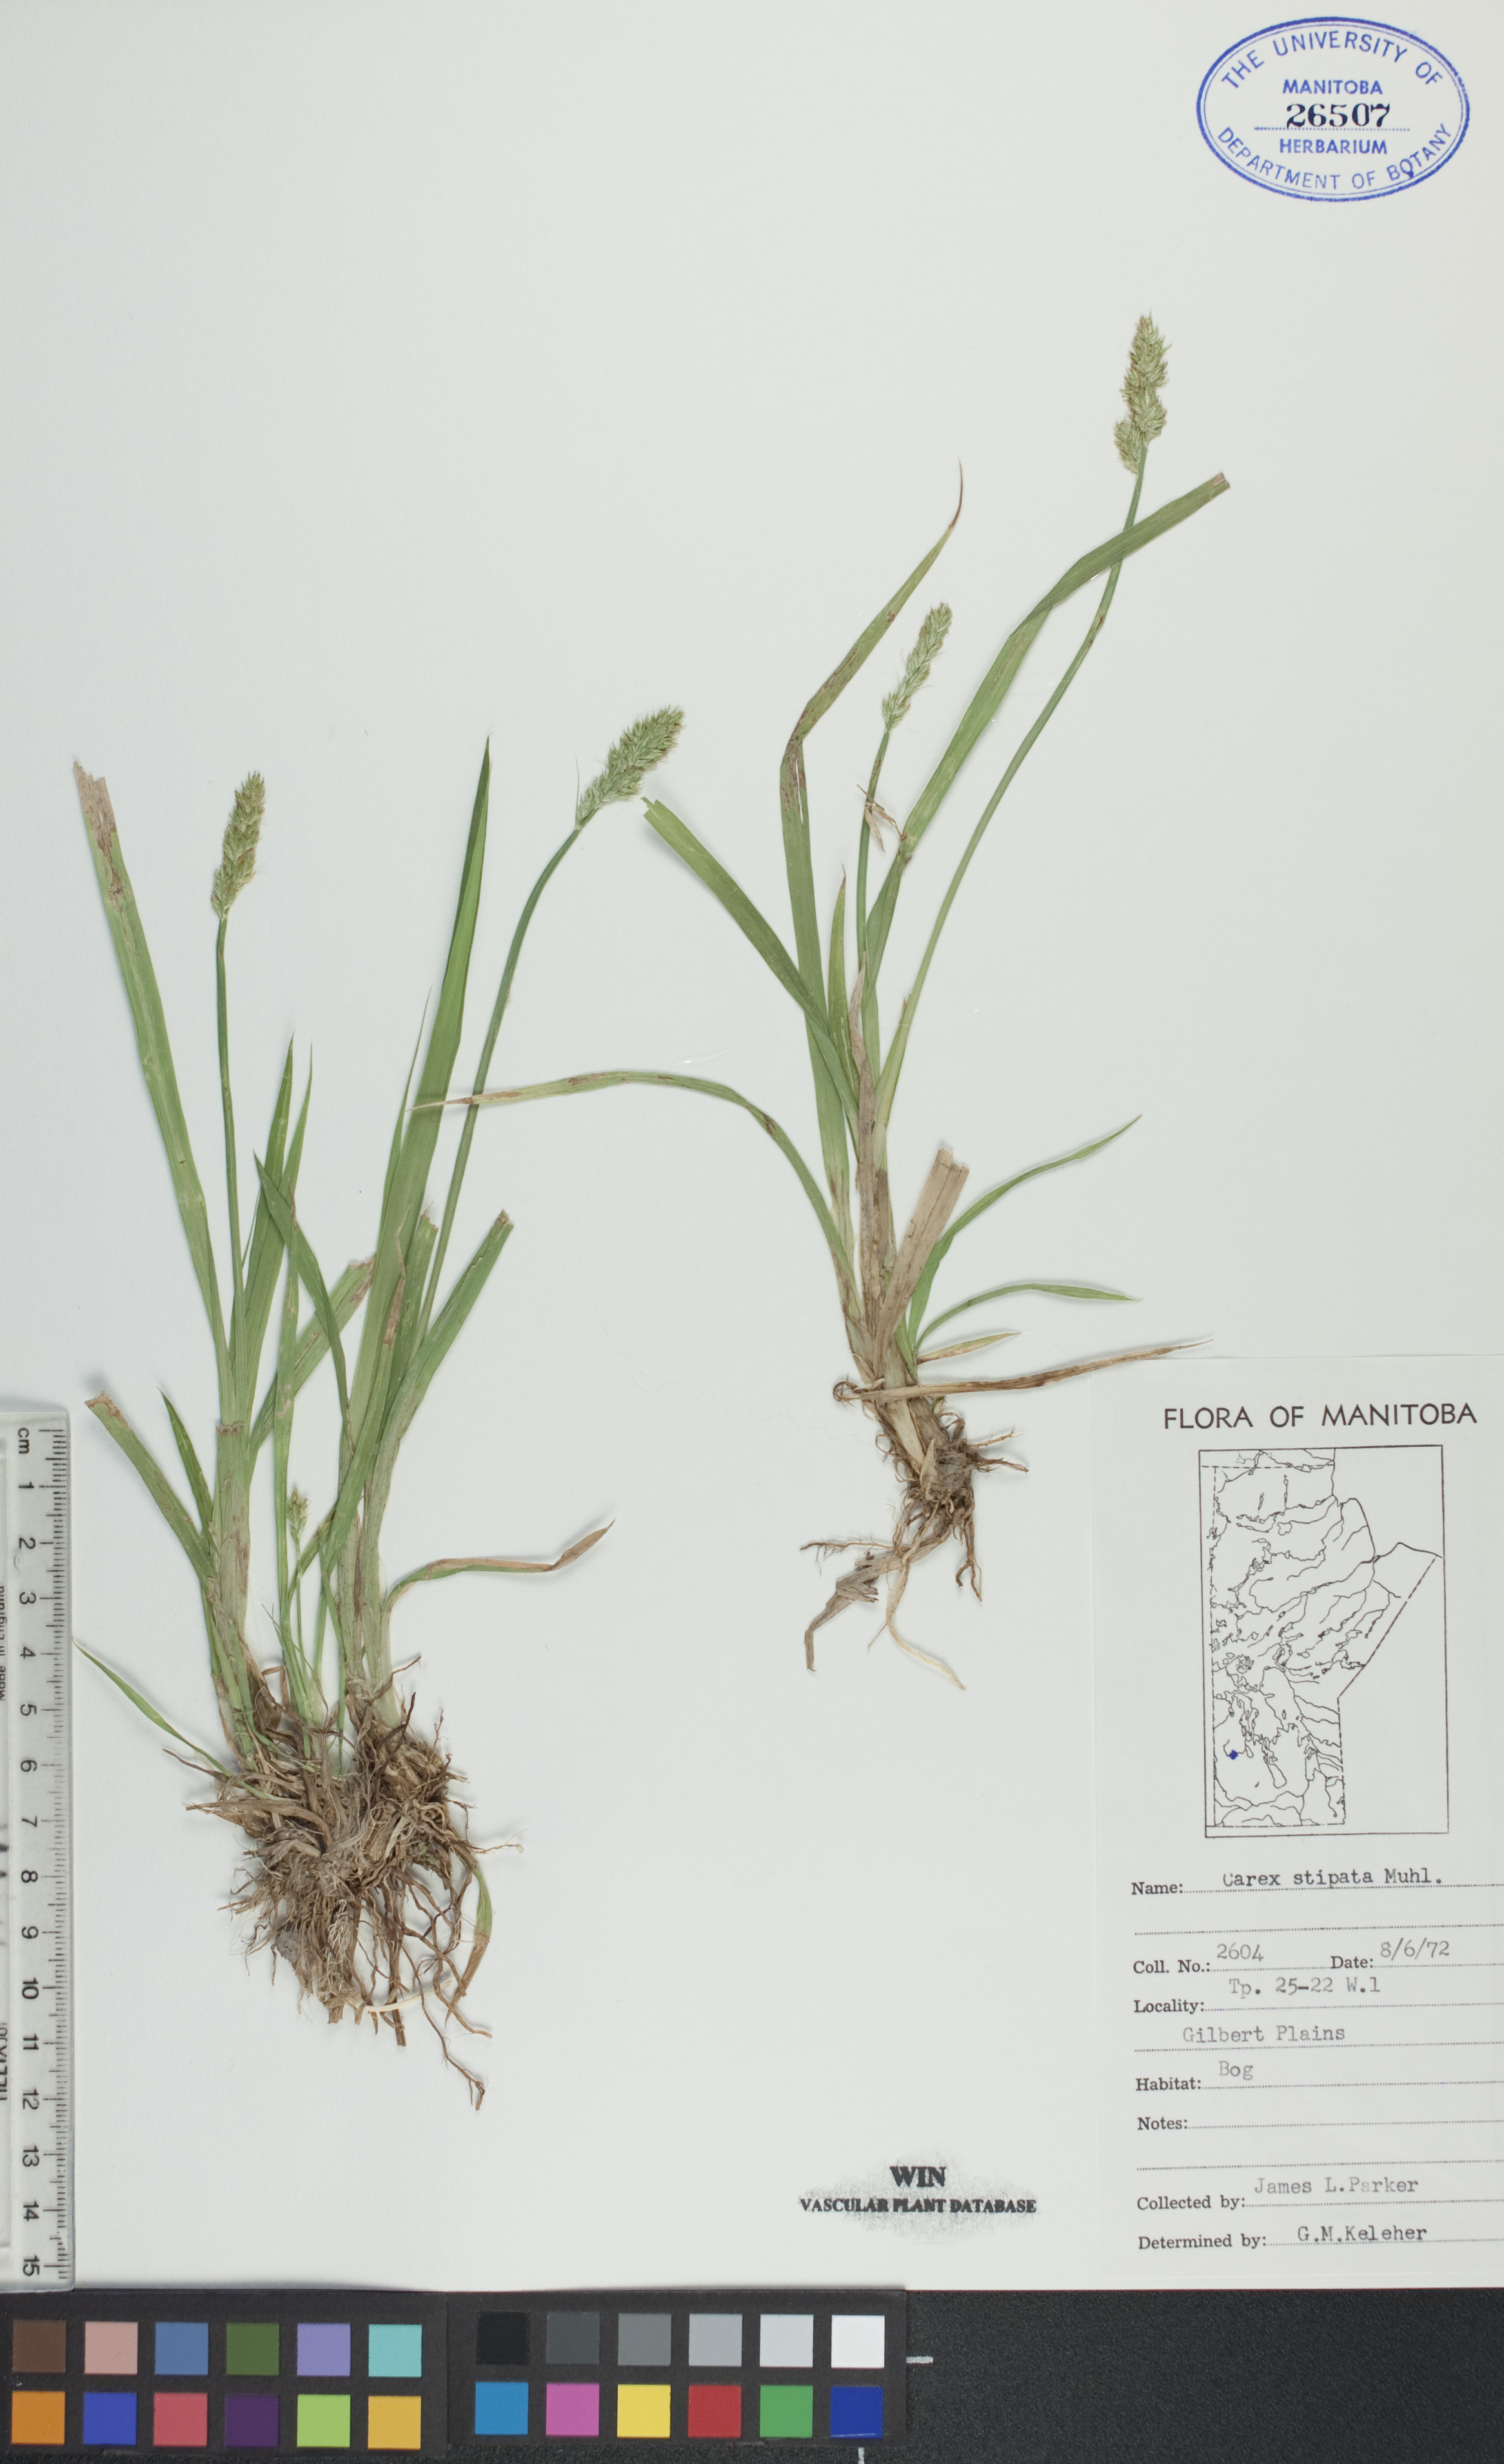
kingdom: Plantae
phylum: Tracheophyta
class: Liliopsida
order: Poales
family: Cyperaceae
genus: Carex
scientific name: Carex stipata
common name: Awl-fruited sedge
